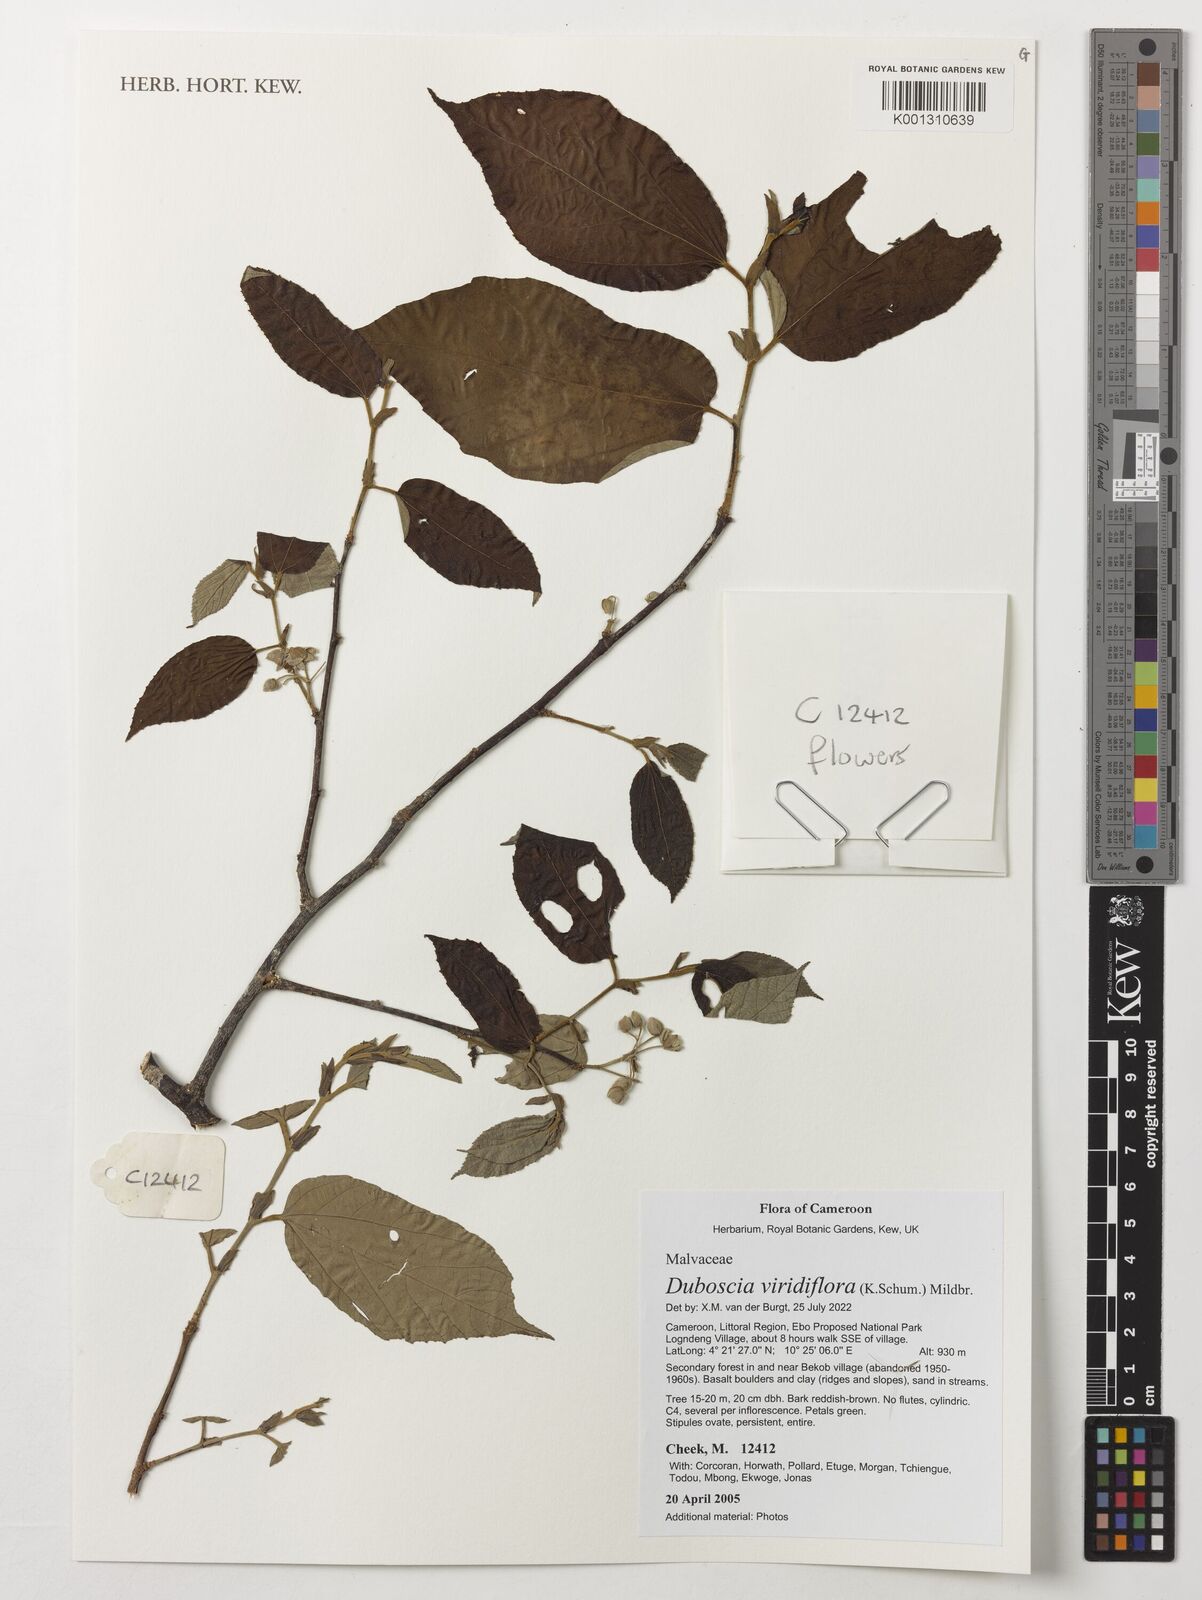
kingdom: Plantae
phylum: Tracheophyta
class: Magnoliopsida
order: Malvales
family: Malvaceae
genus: Duboscia
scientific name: Duboscia viridiflora
